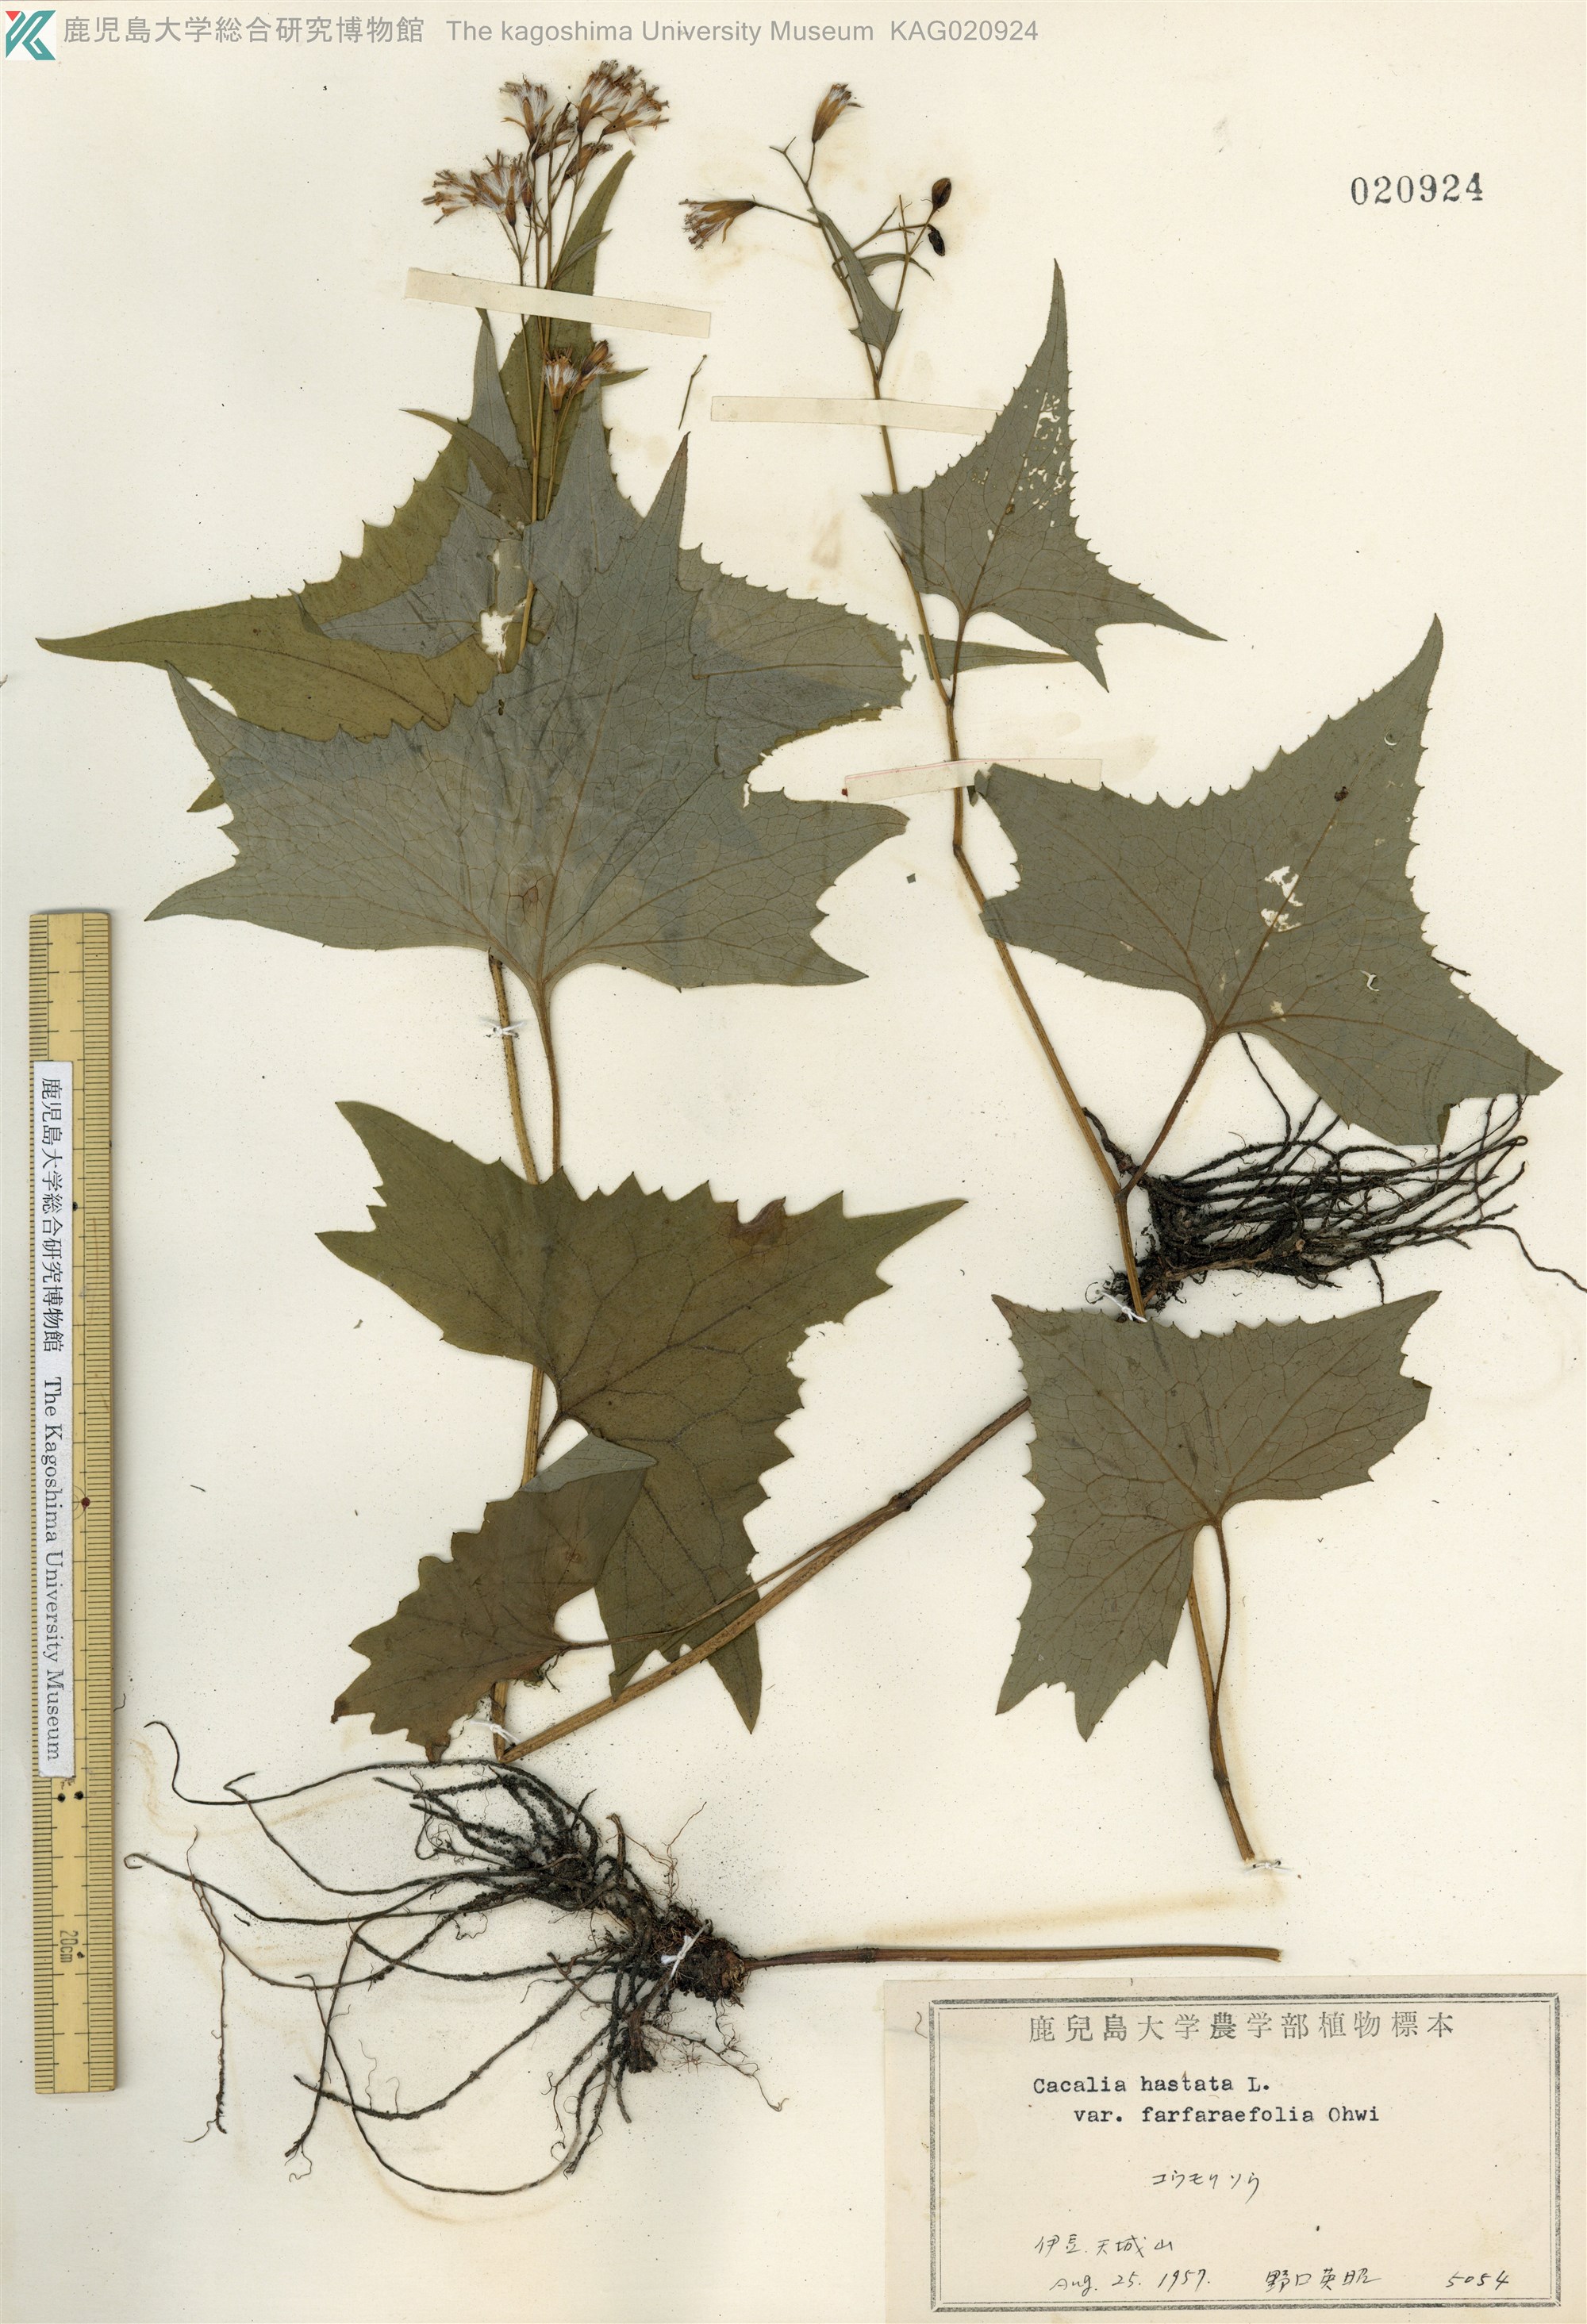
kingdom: Plantae
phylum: Tracheophyta
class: Magnoliopsida
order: Asterales
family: Asteraceae
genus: Parasenecio
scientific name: Parasenecio maximowicziana
